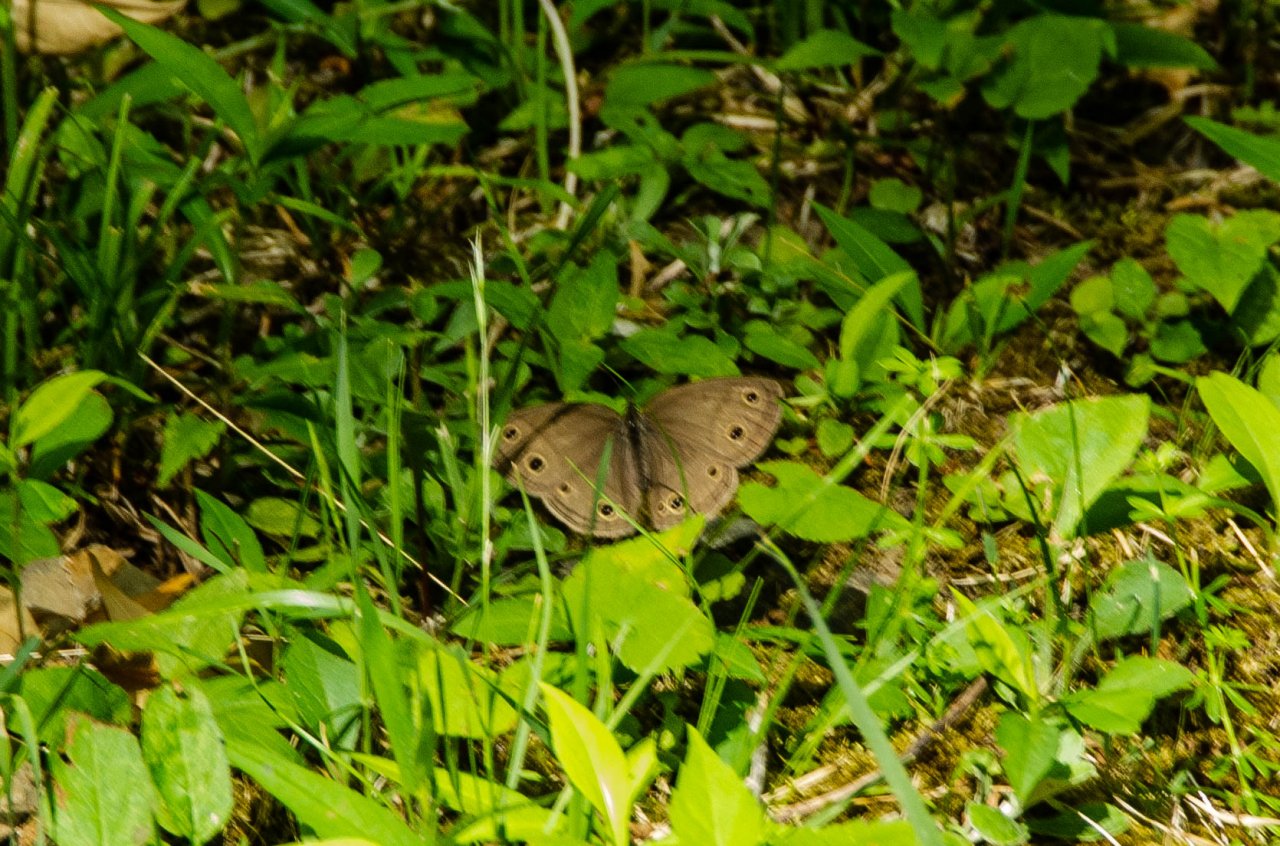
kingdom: Animalia
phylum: Arthropoda
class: Insecta
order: Lepidoptera
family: Nymphalidae
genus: Euptychia
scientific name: Euptychia cymela
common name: Little Wood Satyr
